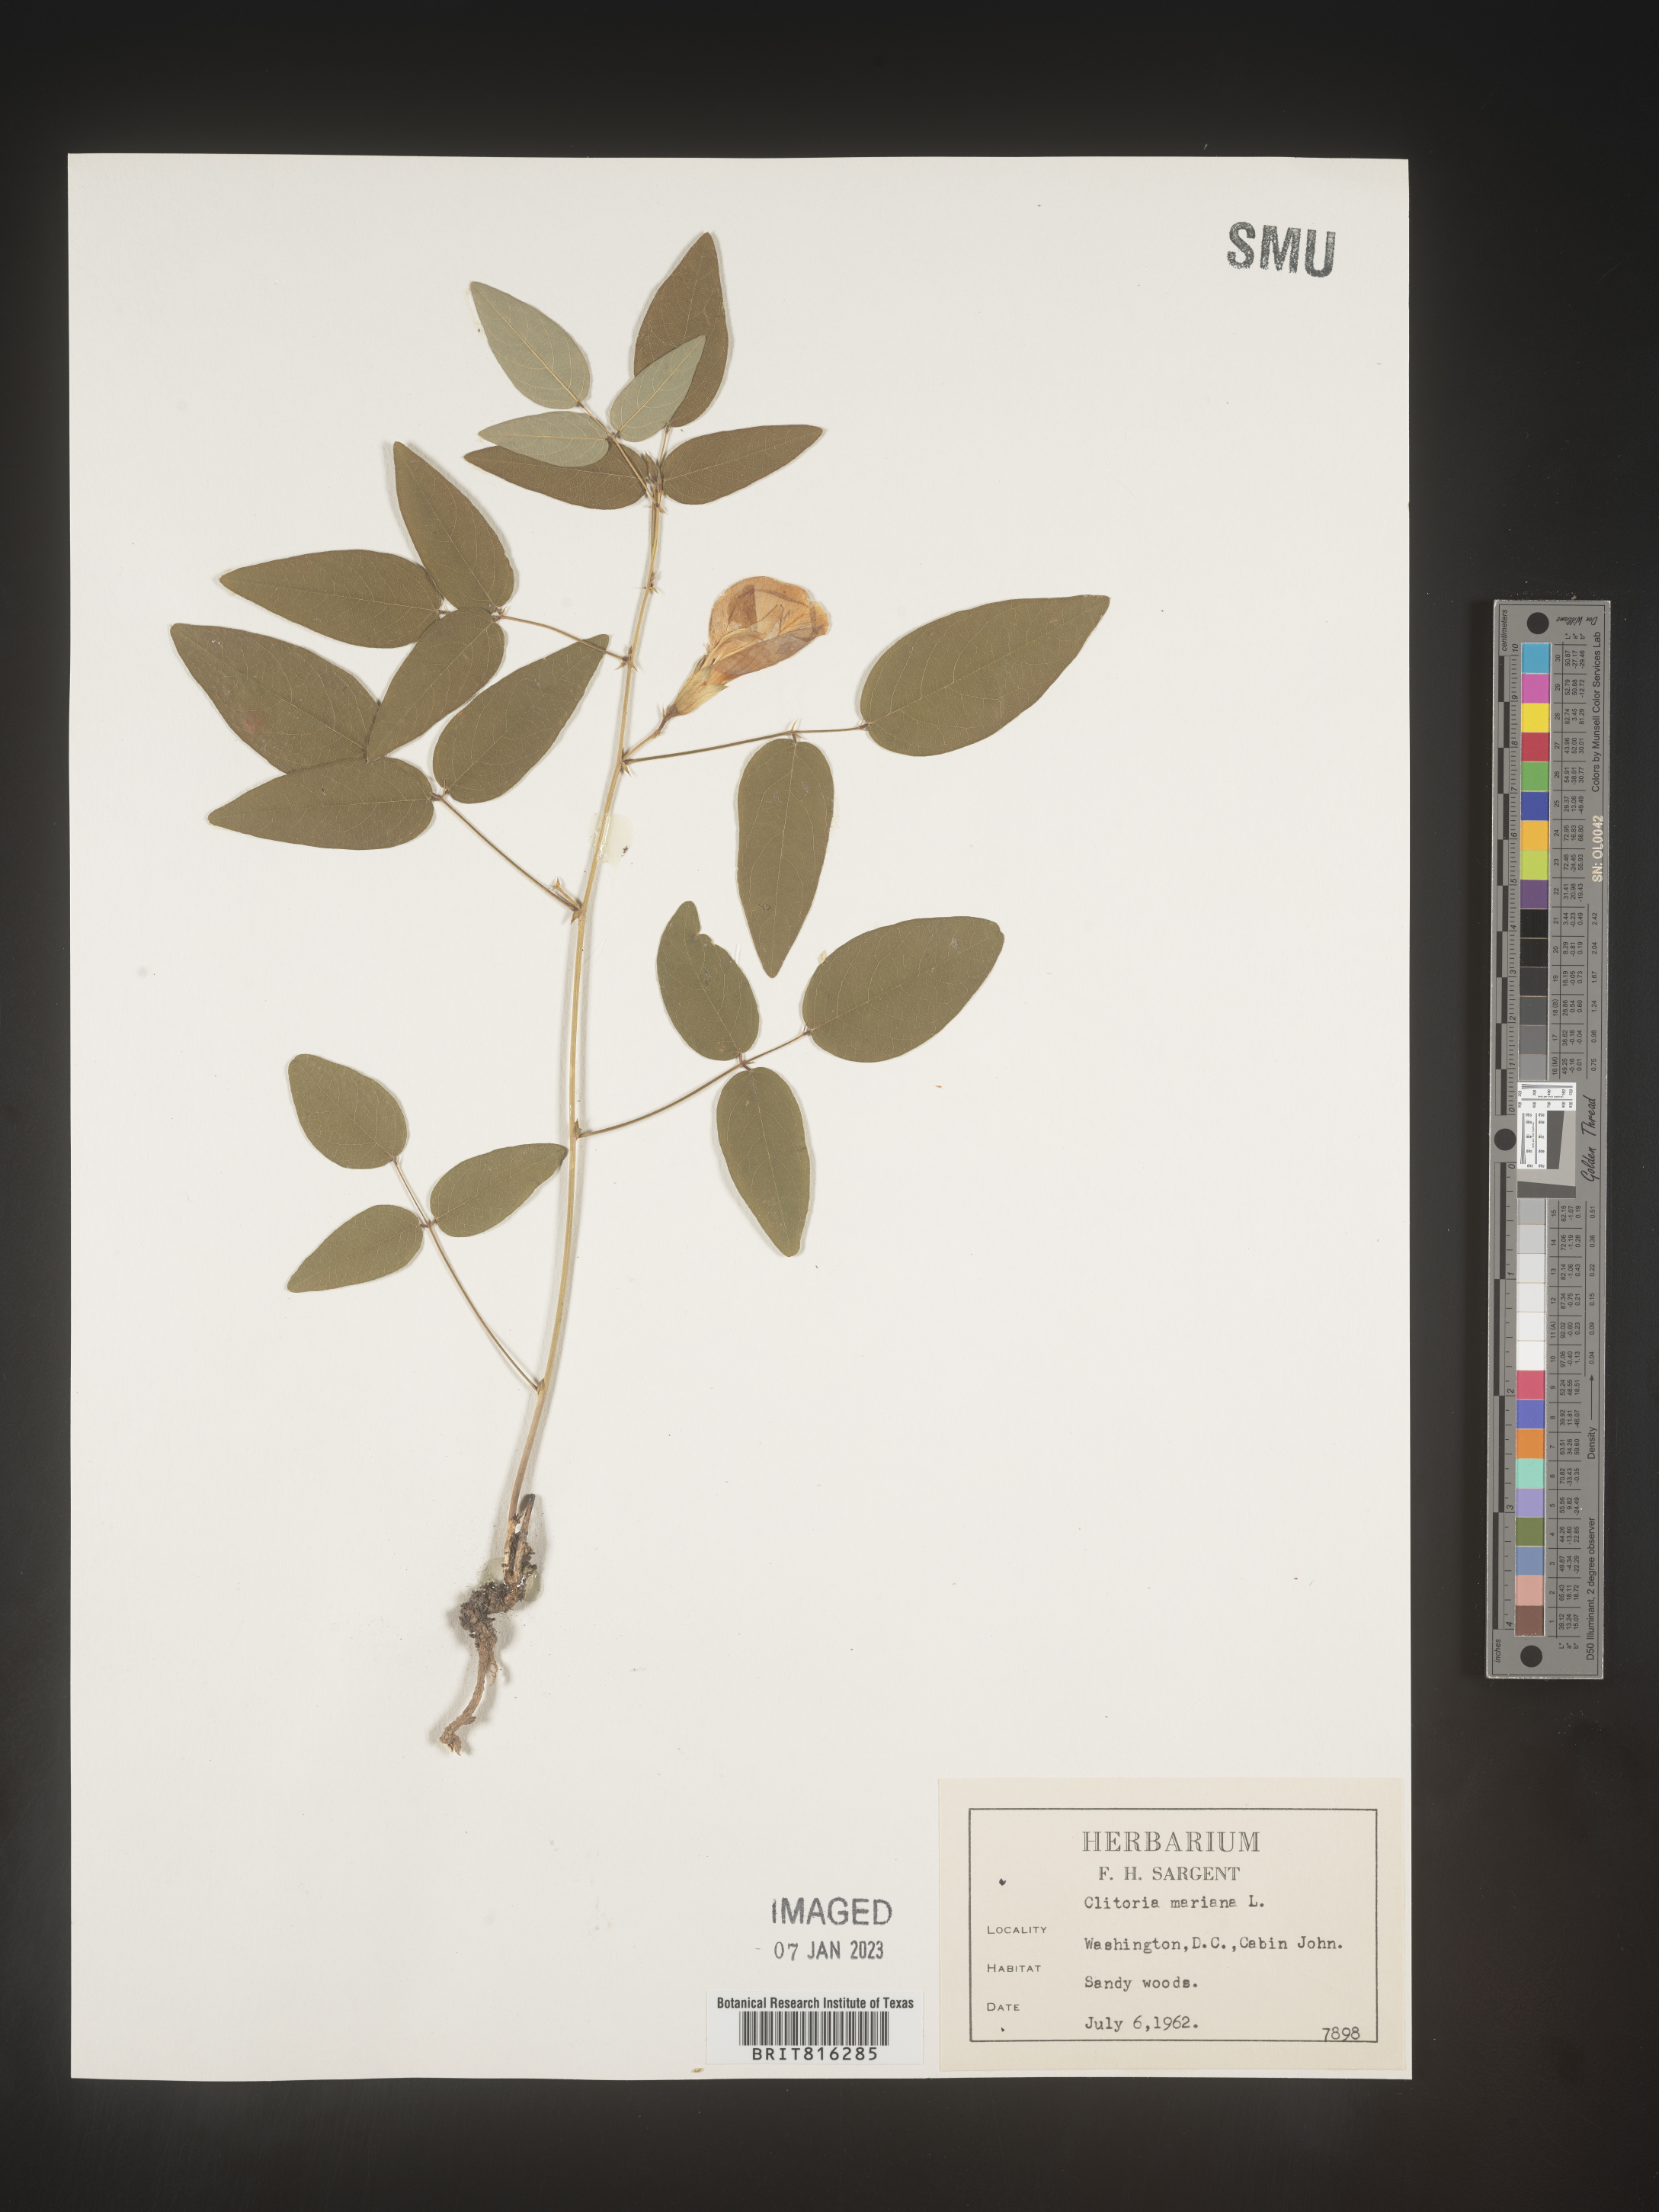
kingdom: Plantae
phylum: Tracheophyta
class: Magnoliopsida
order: Fabales
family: Fabaceae
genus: Clitoria
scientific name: Clitoria mariana
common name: Butterfly-pea
